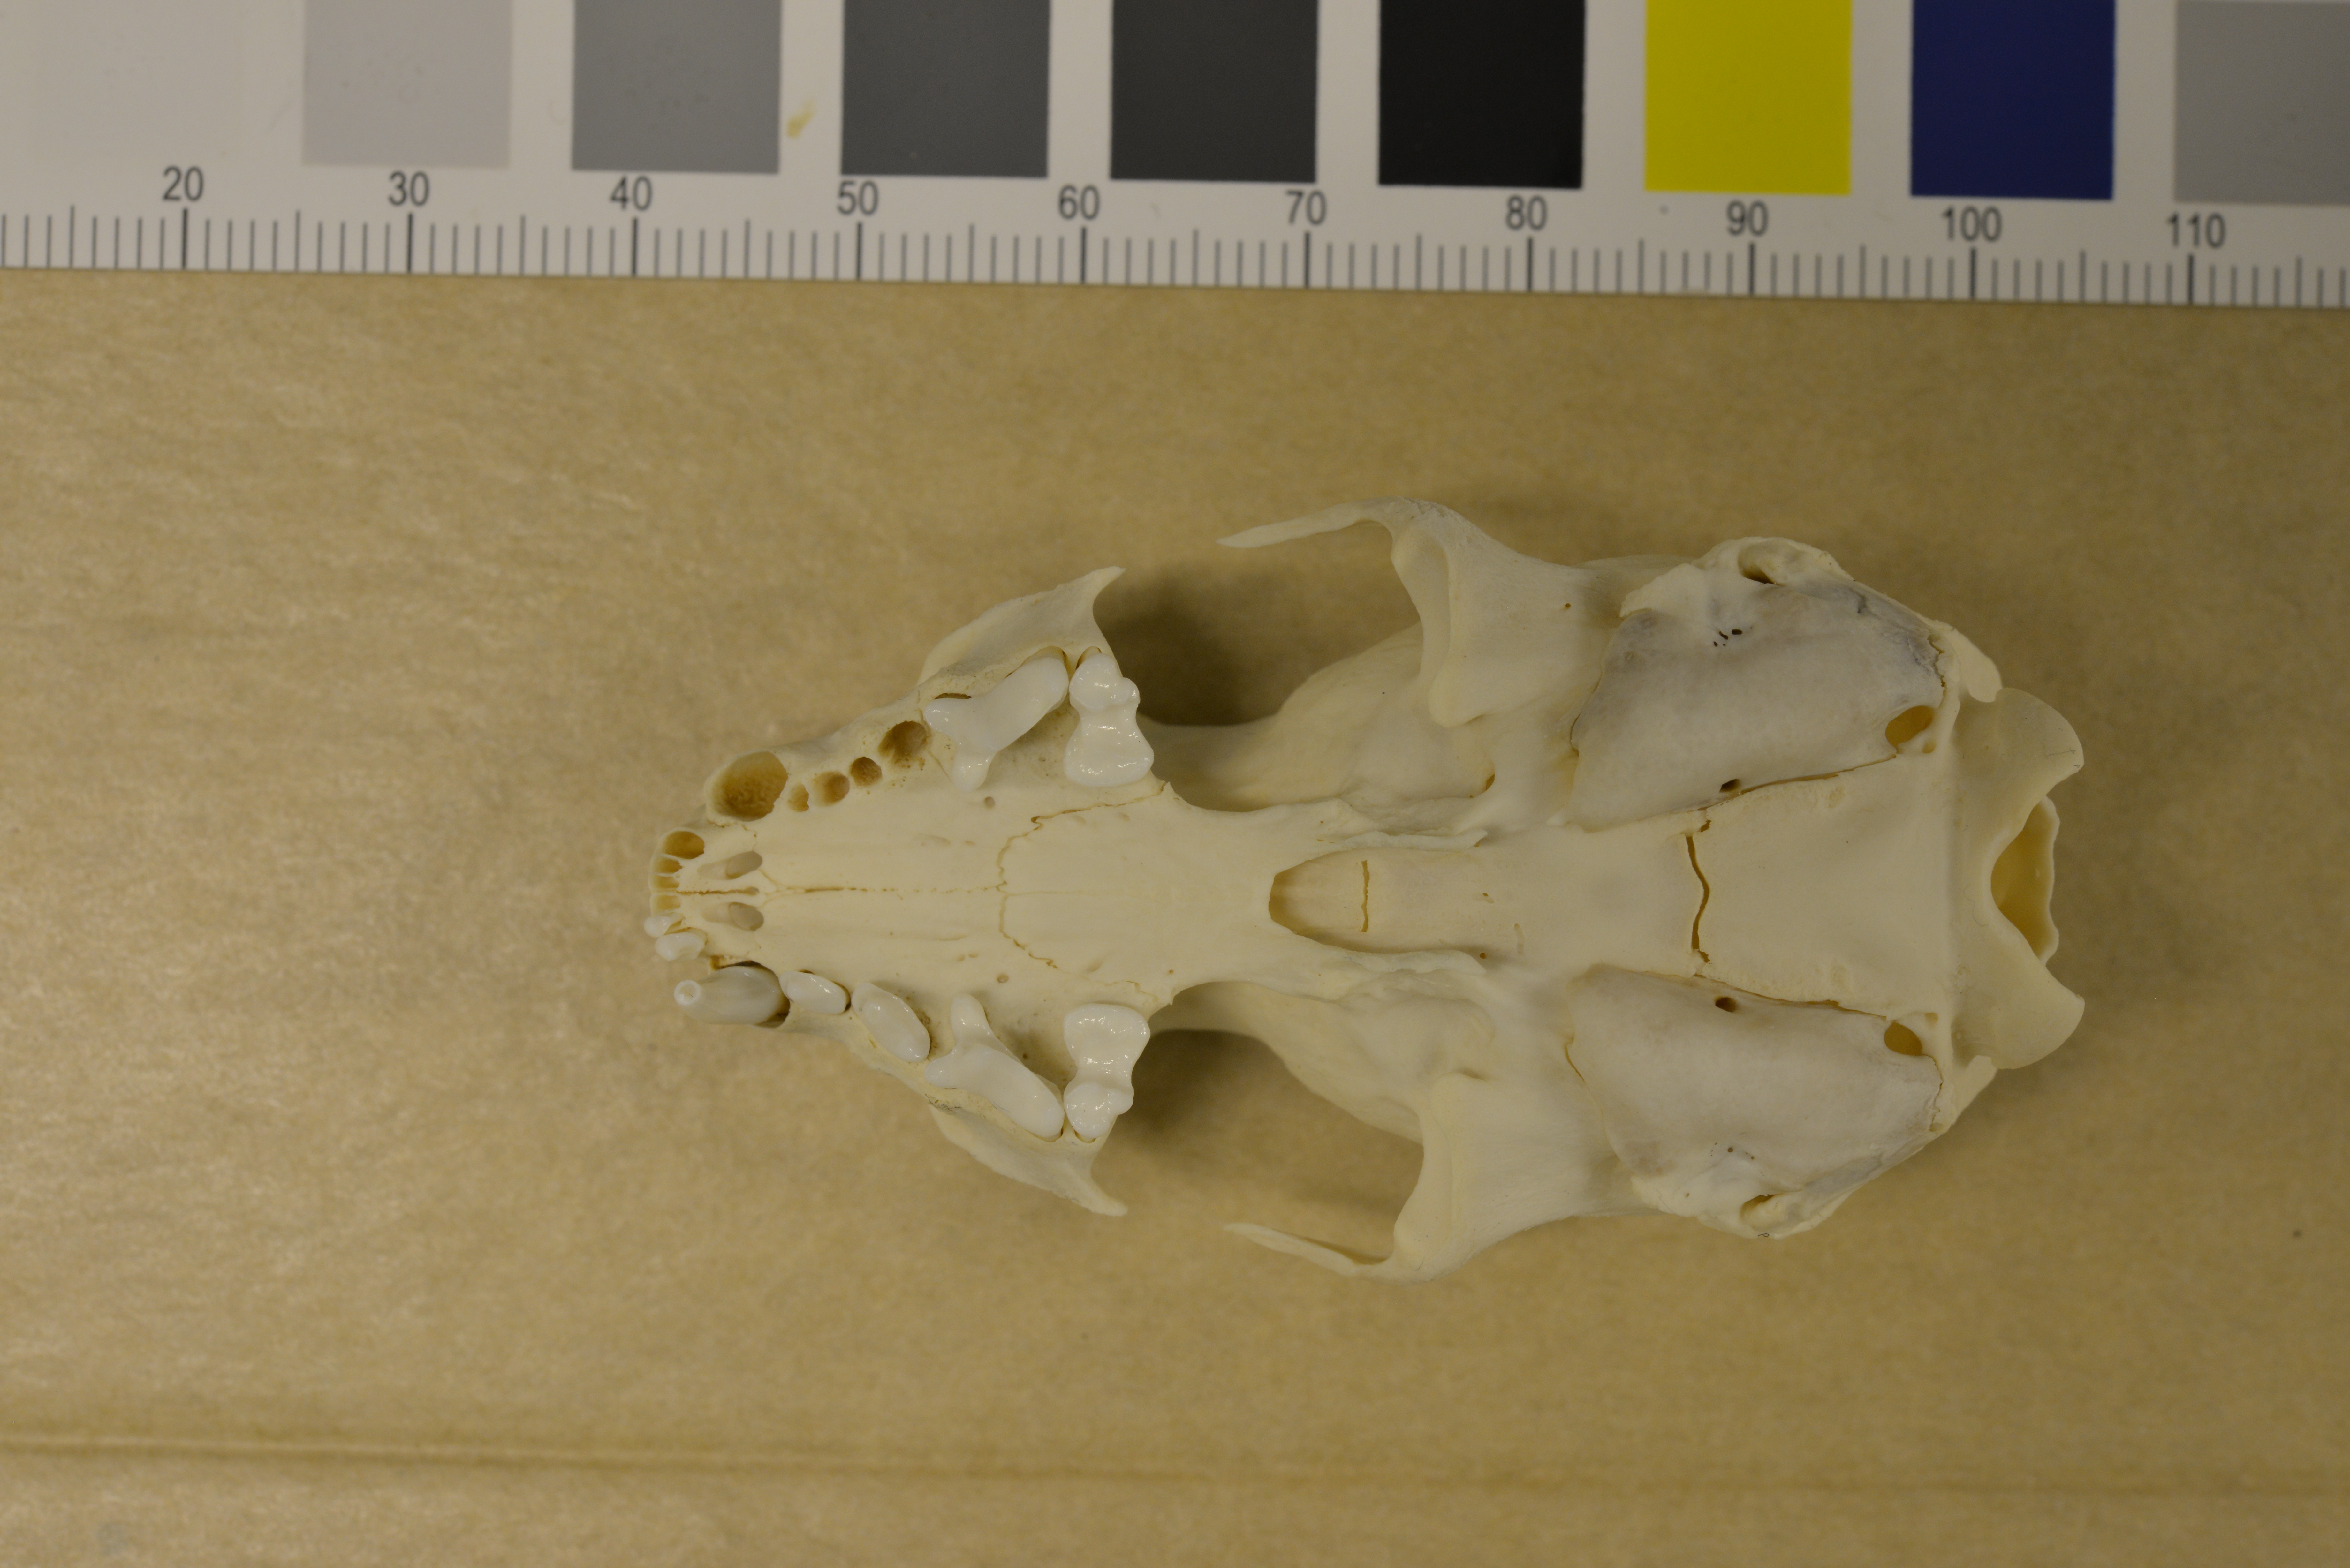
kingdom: Animalia
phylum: Chordata
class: Mammalia
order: Carnivora
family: Mustelidae
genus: Mustela
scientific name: Mustela vison
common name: American mink
